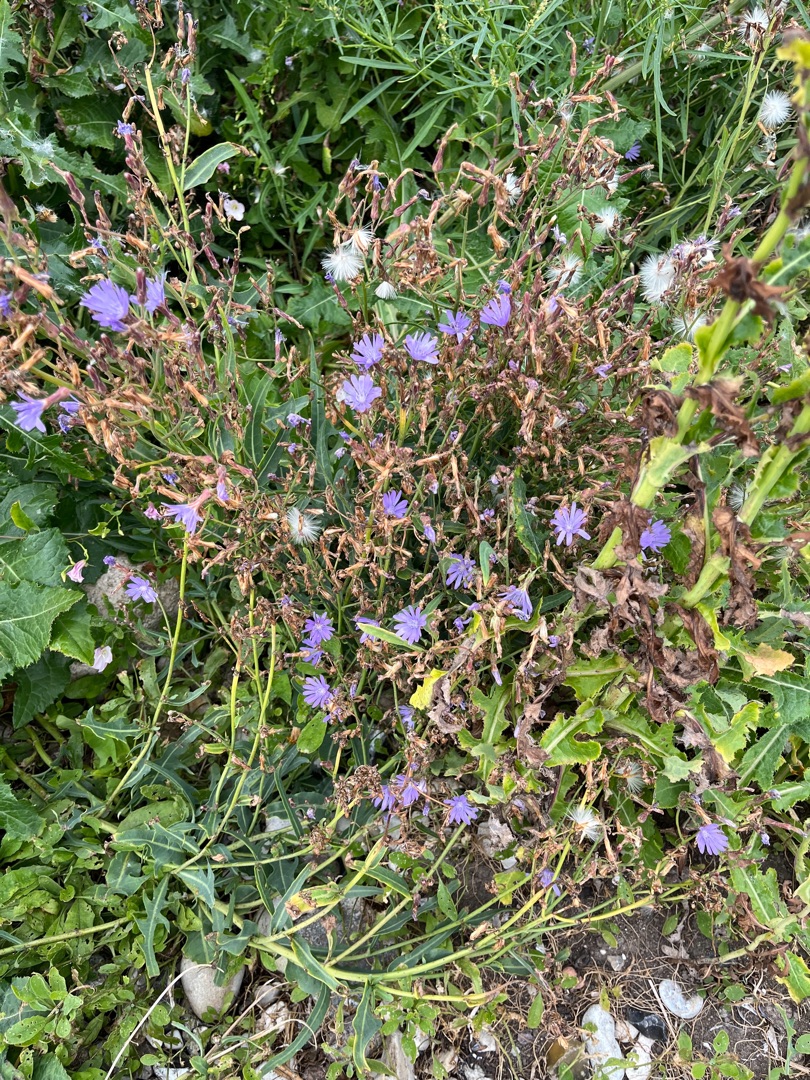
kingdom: Plantae
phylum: Tracheophyta
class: Magnoliopsida
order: Asterales
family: Asteraceae
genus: Lactuca
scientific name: Lactuca tatarica
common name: Strand-salat
